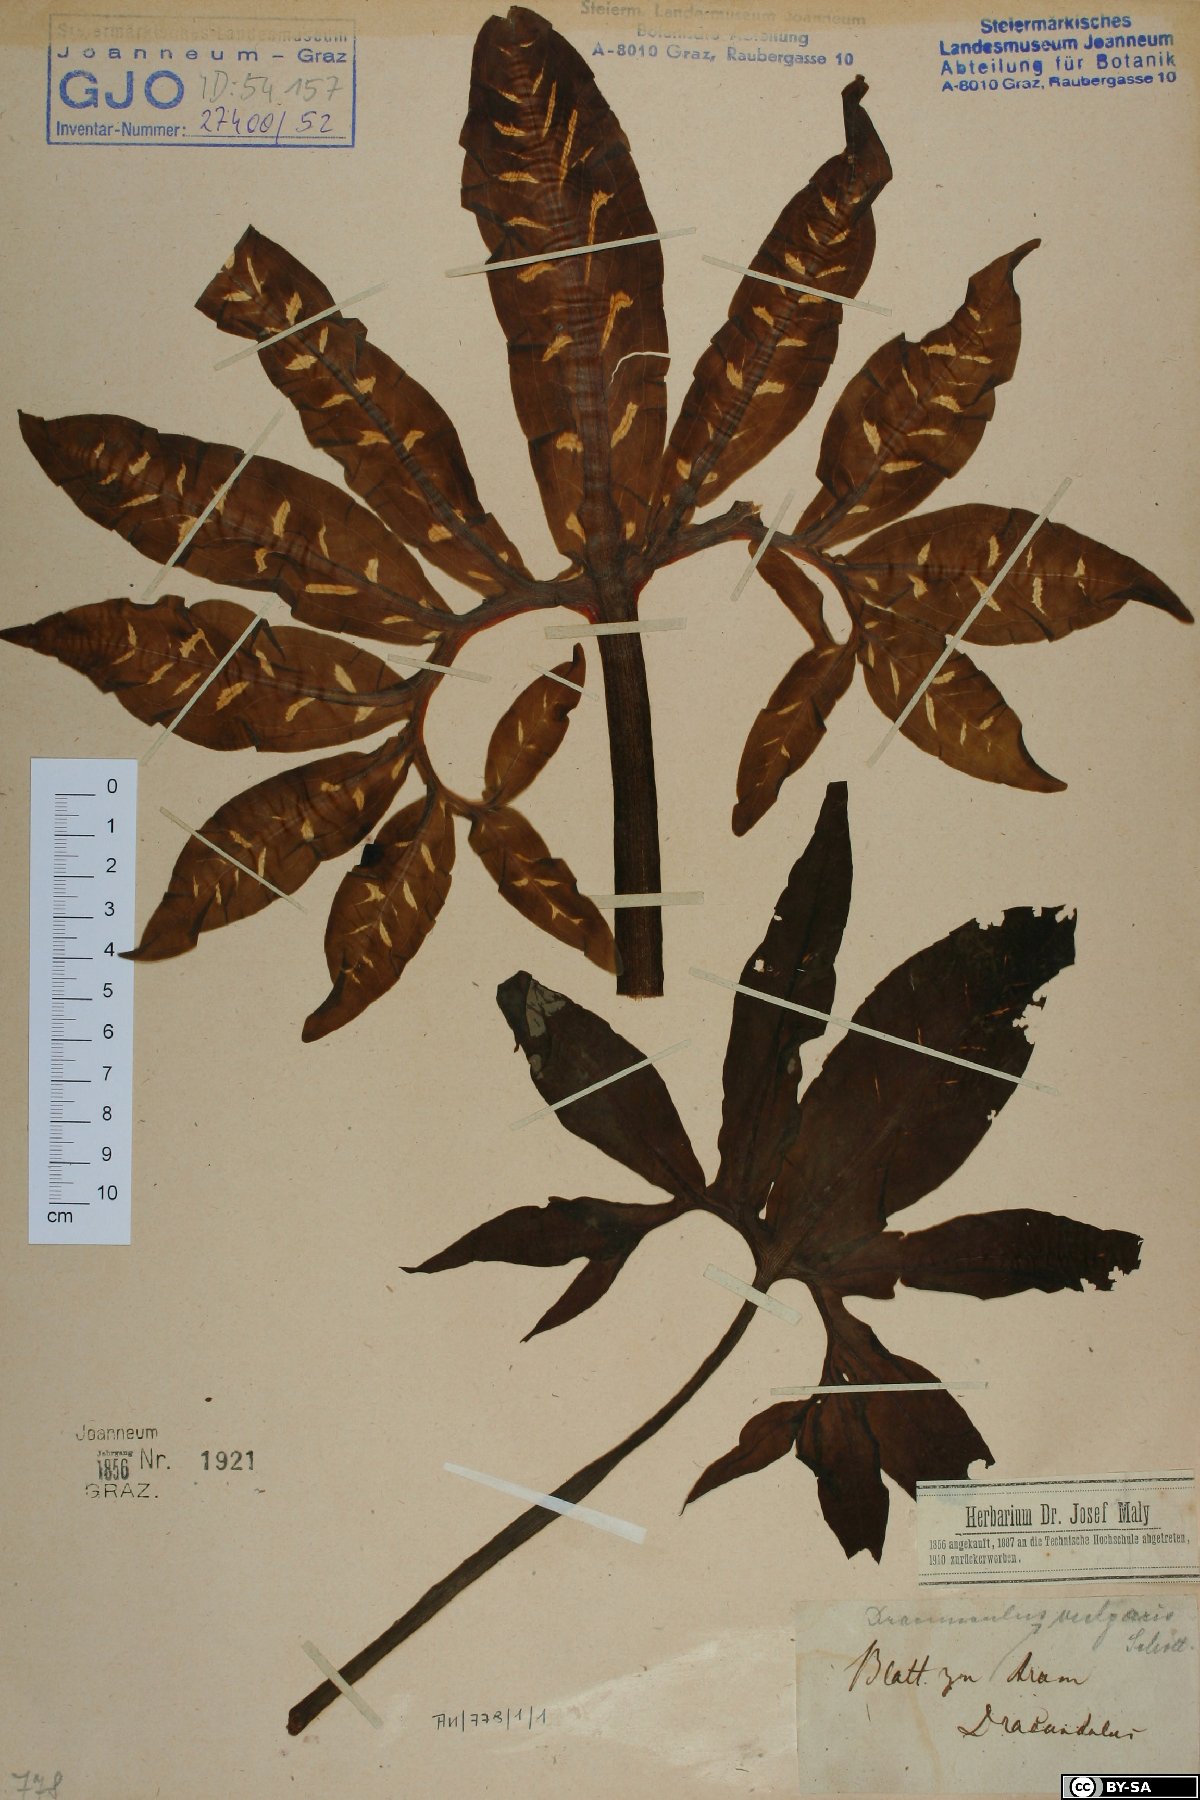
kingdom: Plantae
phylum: Tracheophyta
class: Liliopsida
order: Alismatales
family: Araceae
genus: Dracunculus
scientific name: Dracunculus vulgaris
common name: Dragon arum
